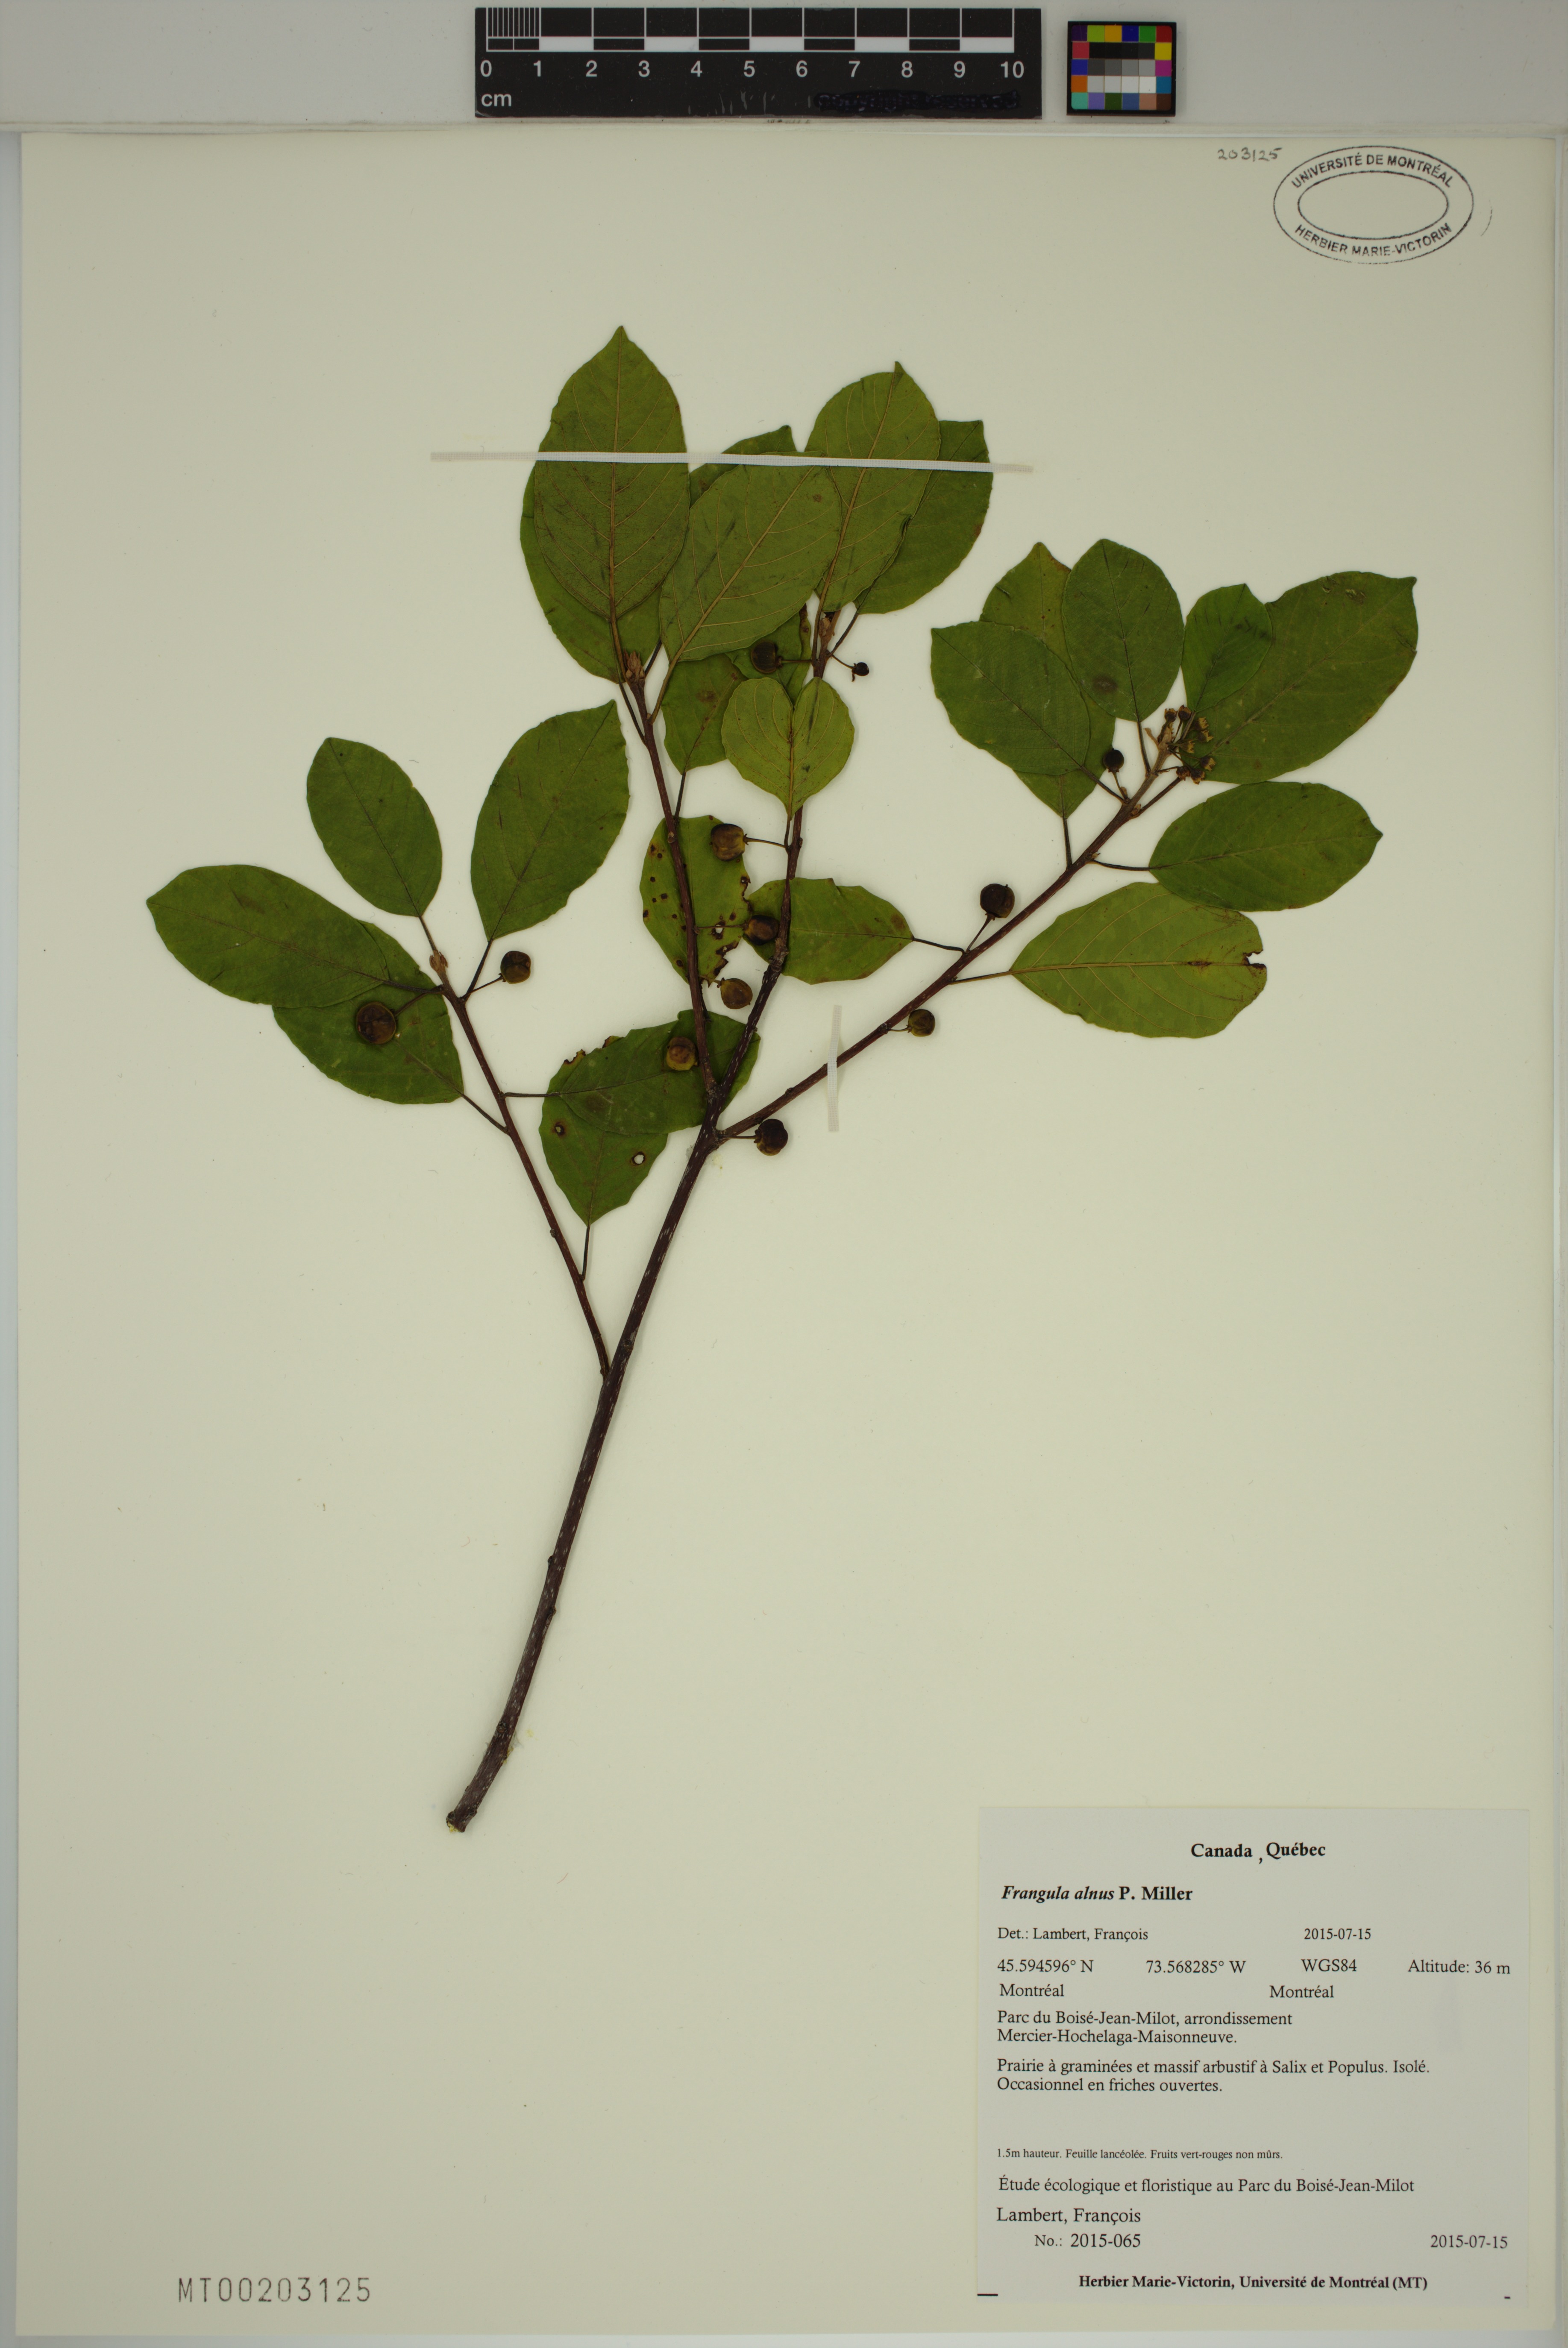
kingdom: Plantae
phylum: Tracheophyta
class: Magnoliopsida
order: Rosales
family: Rhamnaceae
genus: Frangula
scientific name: Frangula alnus
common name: Alder buckthorn
